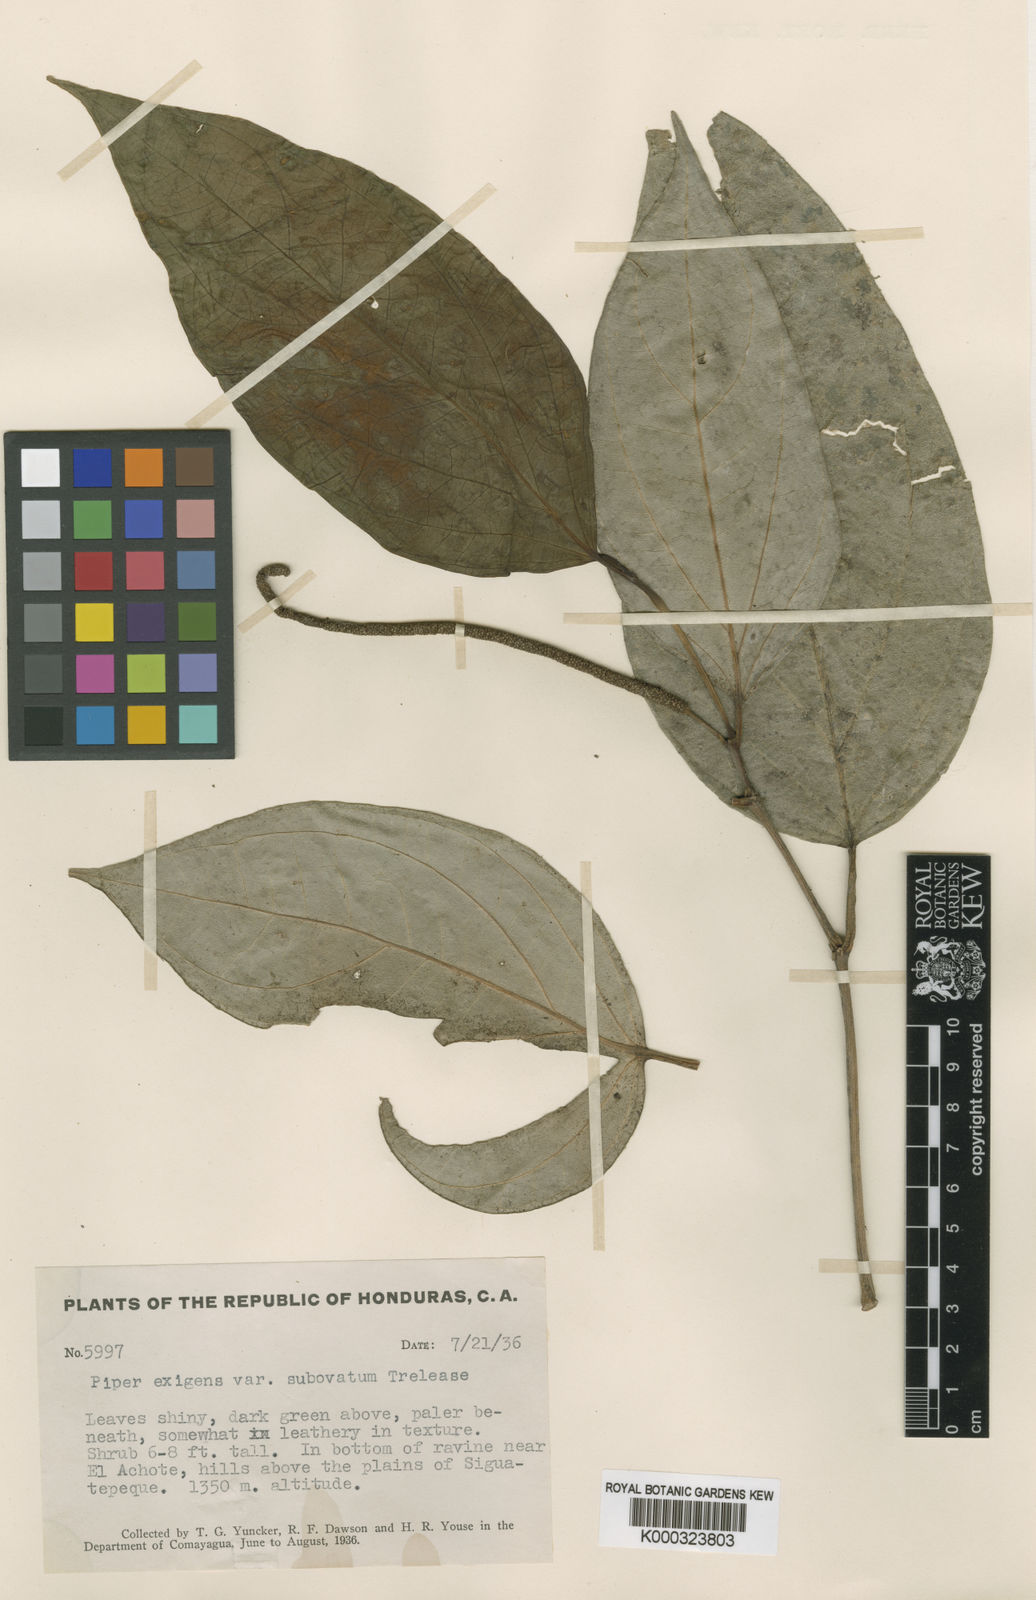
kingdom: Plantae
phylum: Tracheophyta
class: Magnoliopsida
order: Piperales
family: Piperaceae
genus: Piper
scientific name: Piper schiedeanum
